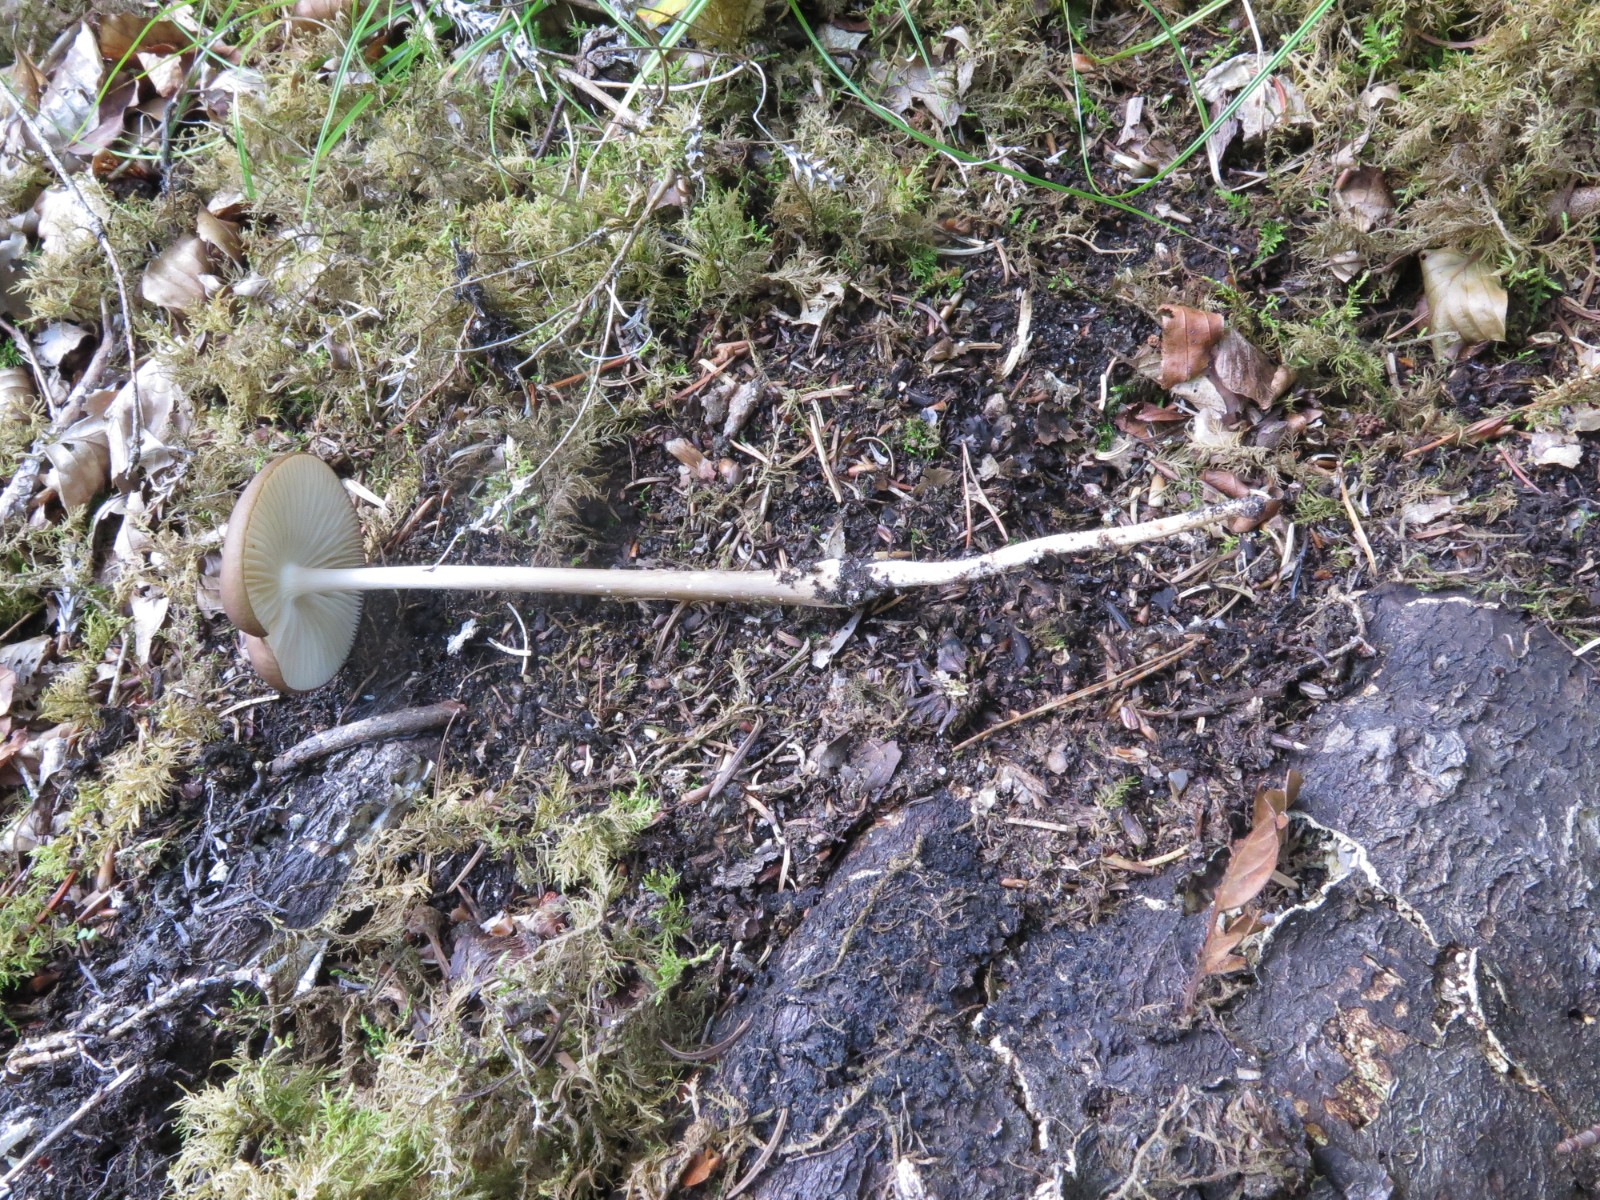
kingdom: Fungi
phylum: Basidiomycota
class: Agaricomycetes
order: Agaricales
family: Physalacriaceae
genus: Hymenopellis
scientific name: Hymenopellis radicata
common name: almindelig pælerodshat
